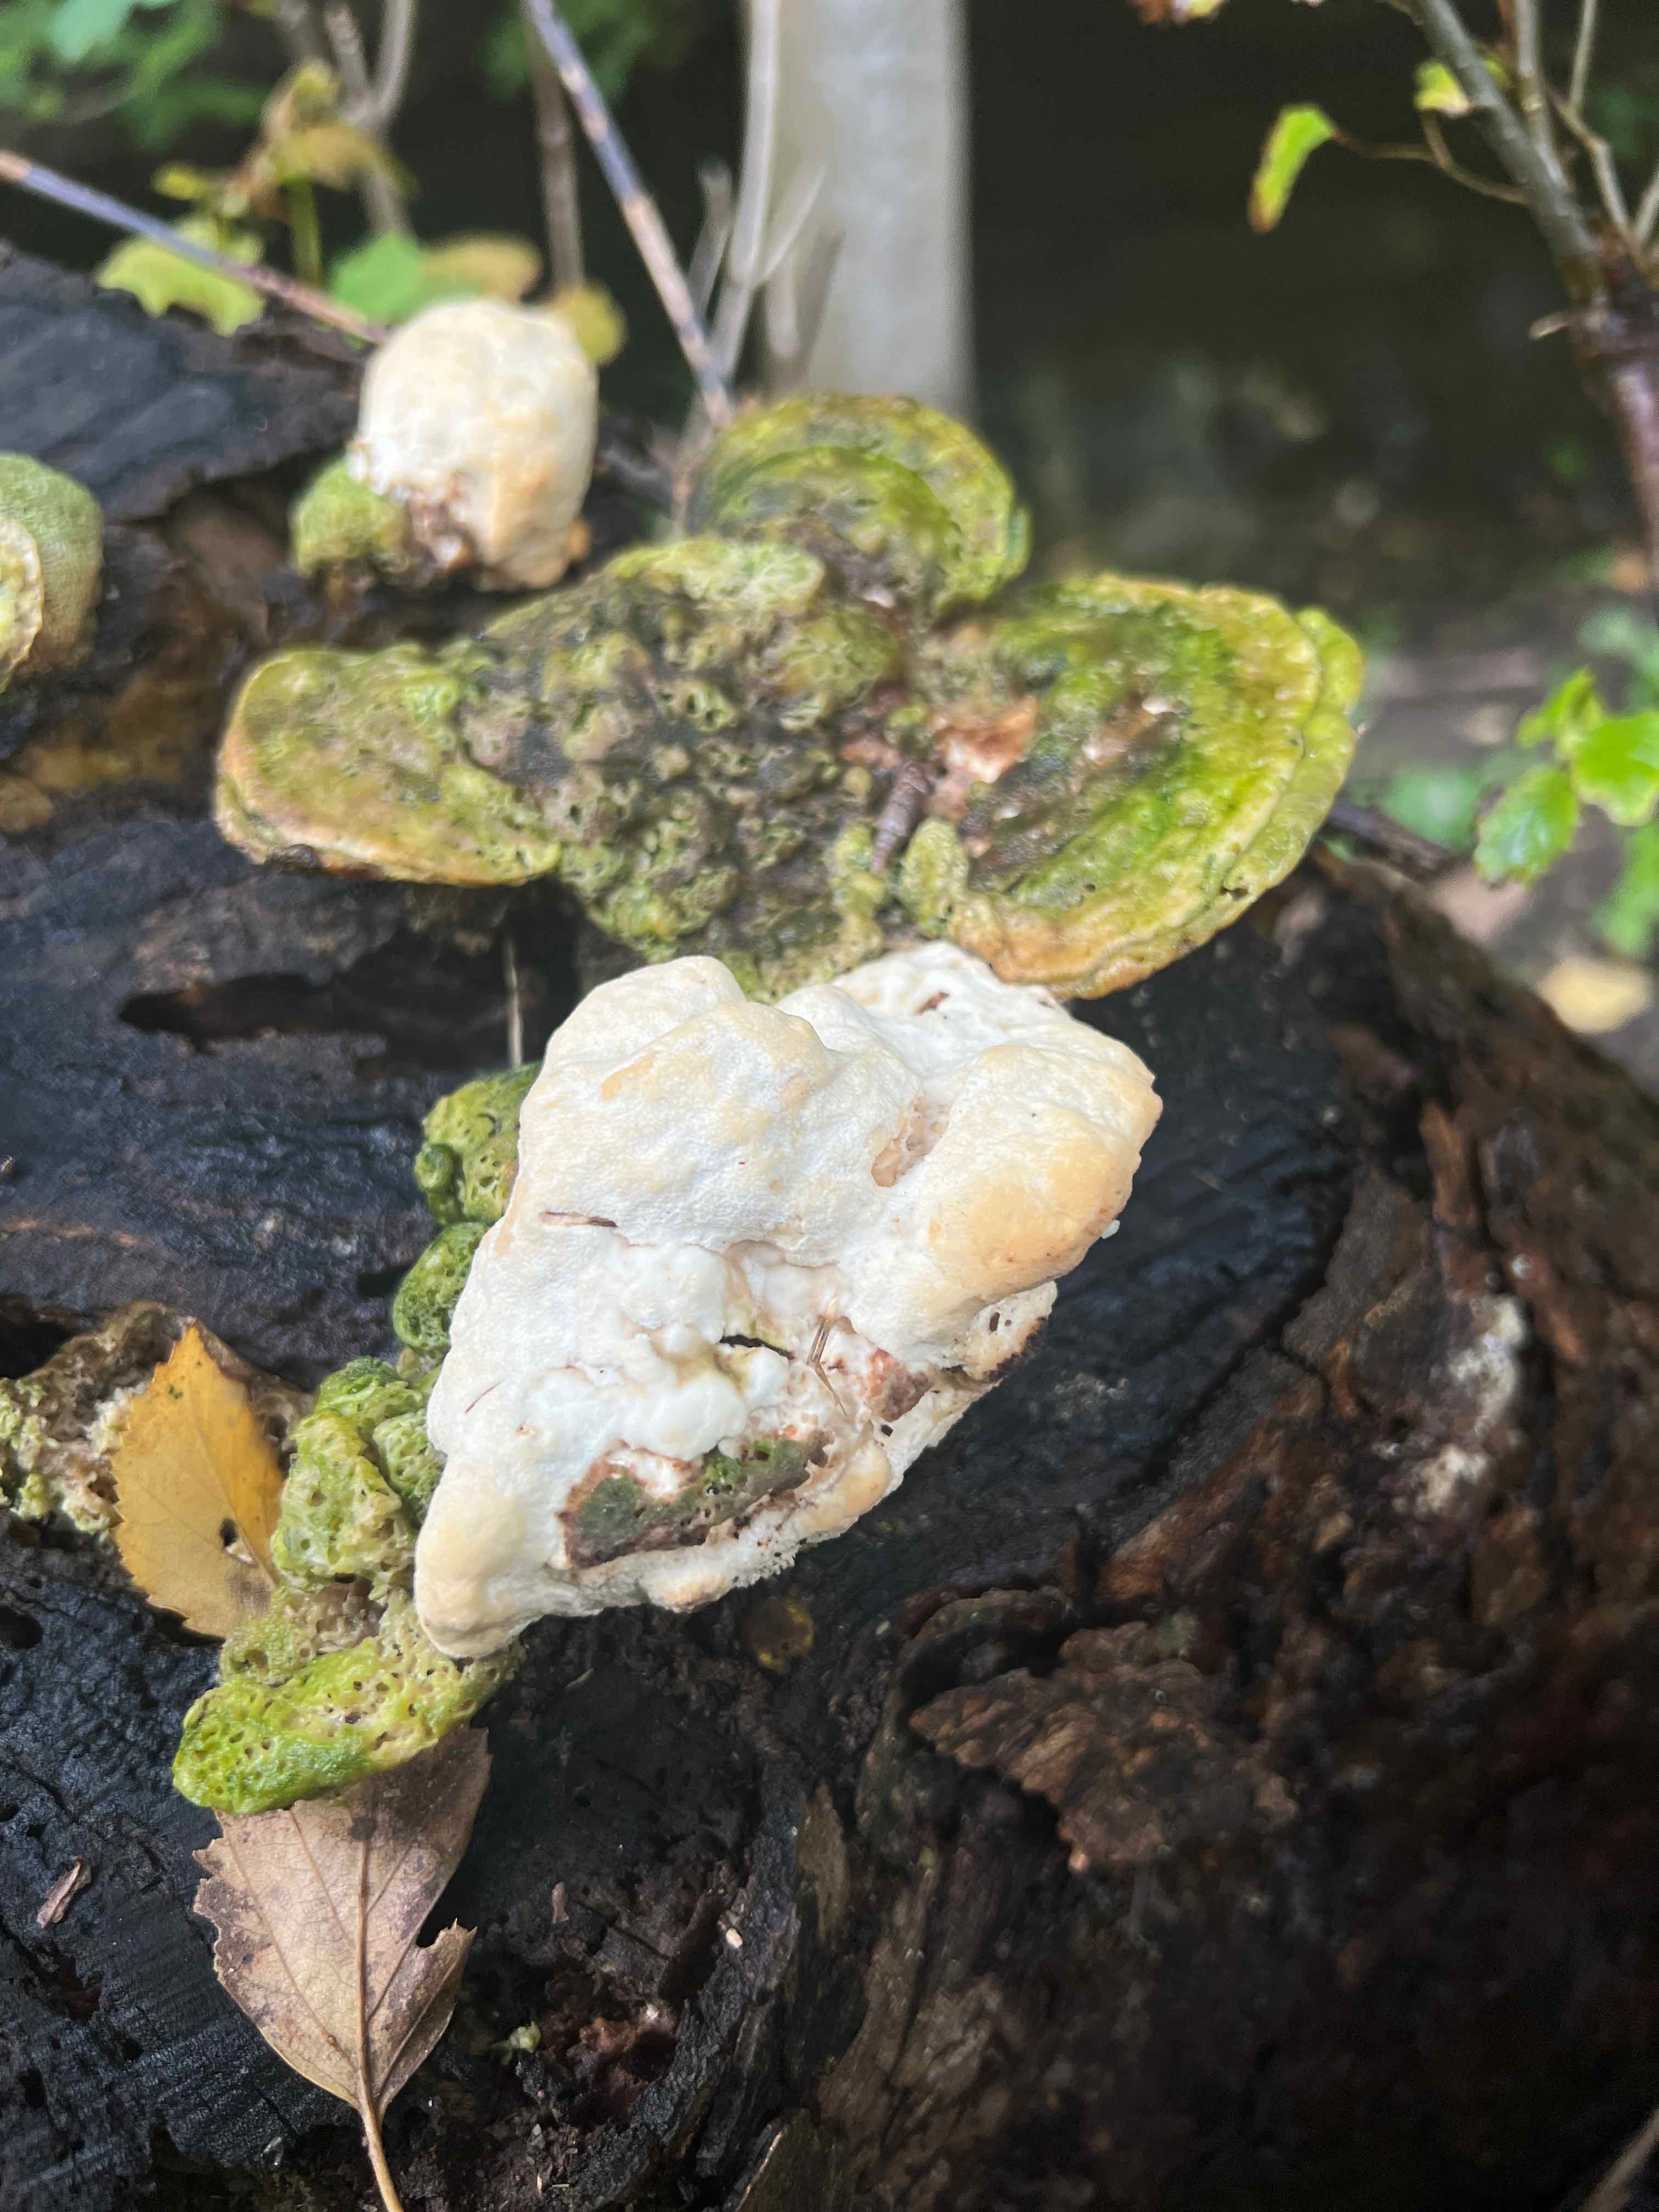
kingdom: Fungi
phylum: Basidiomycota
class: Agaricomycetes
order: Polyporales
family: Polyporaceae
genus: Trametes
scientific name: Trametes gibbosa
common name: puklet læderporesvamp
